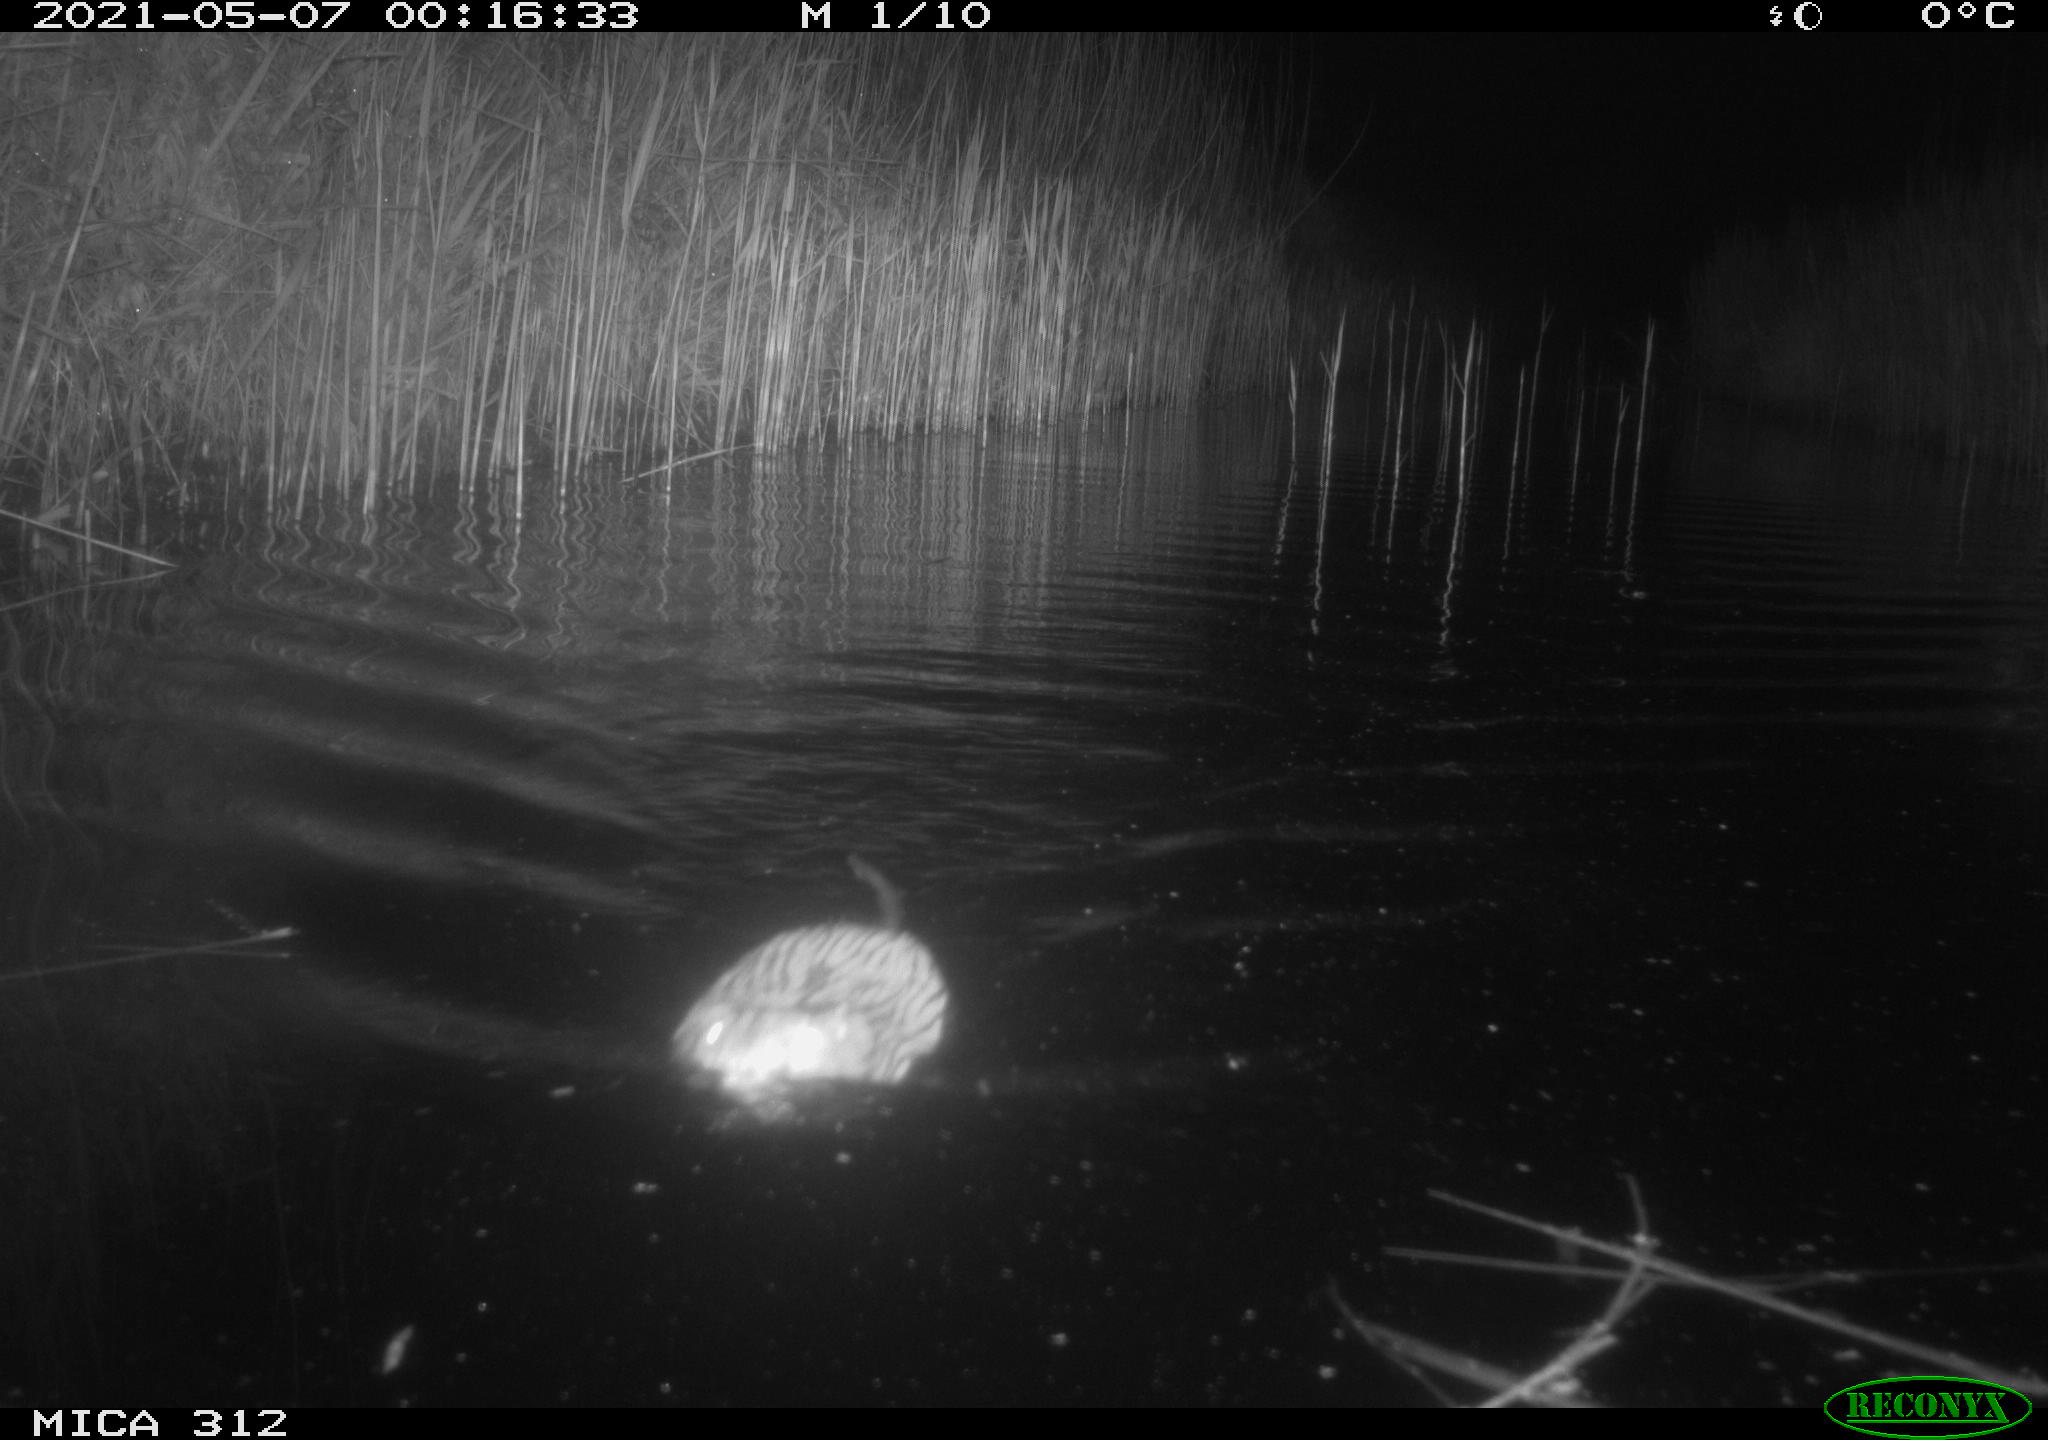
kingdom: Animalia
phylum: Chordata
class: Mammalia
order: Rodentia
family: Cricetidae
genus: Ondatra
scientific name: Ondatra zibethicus
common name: Muskrat
